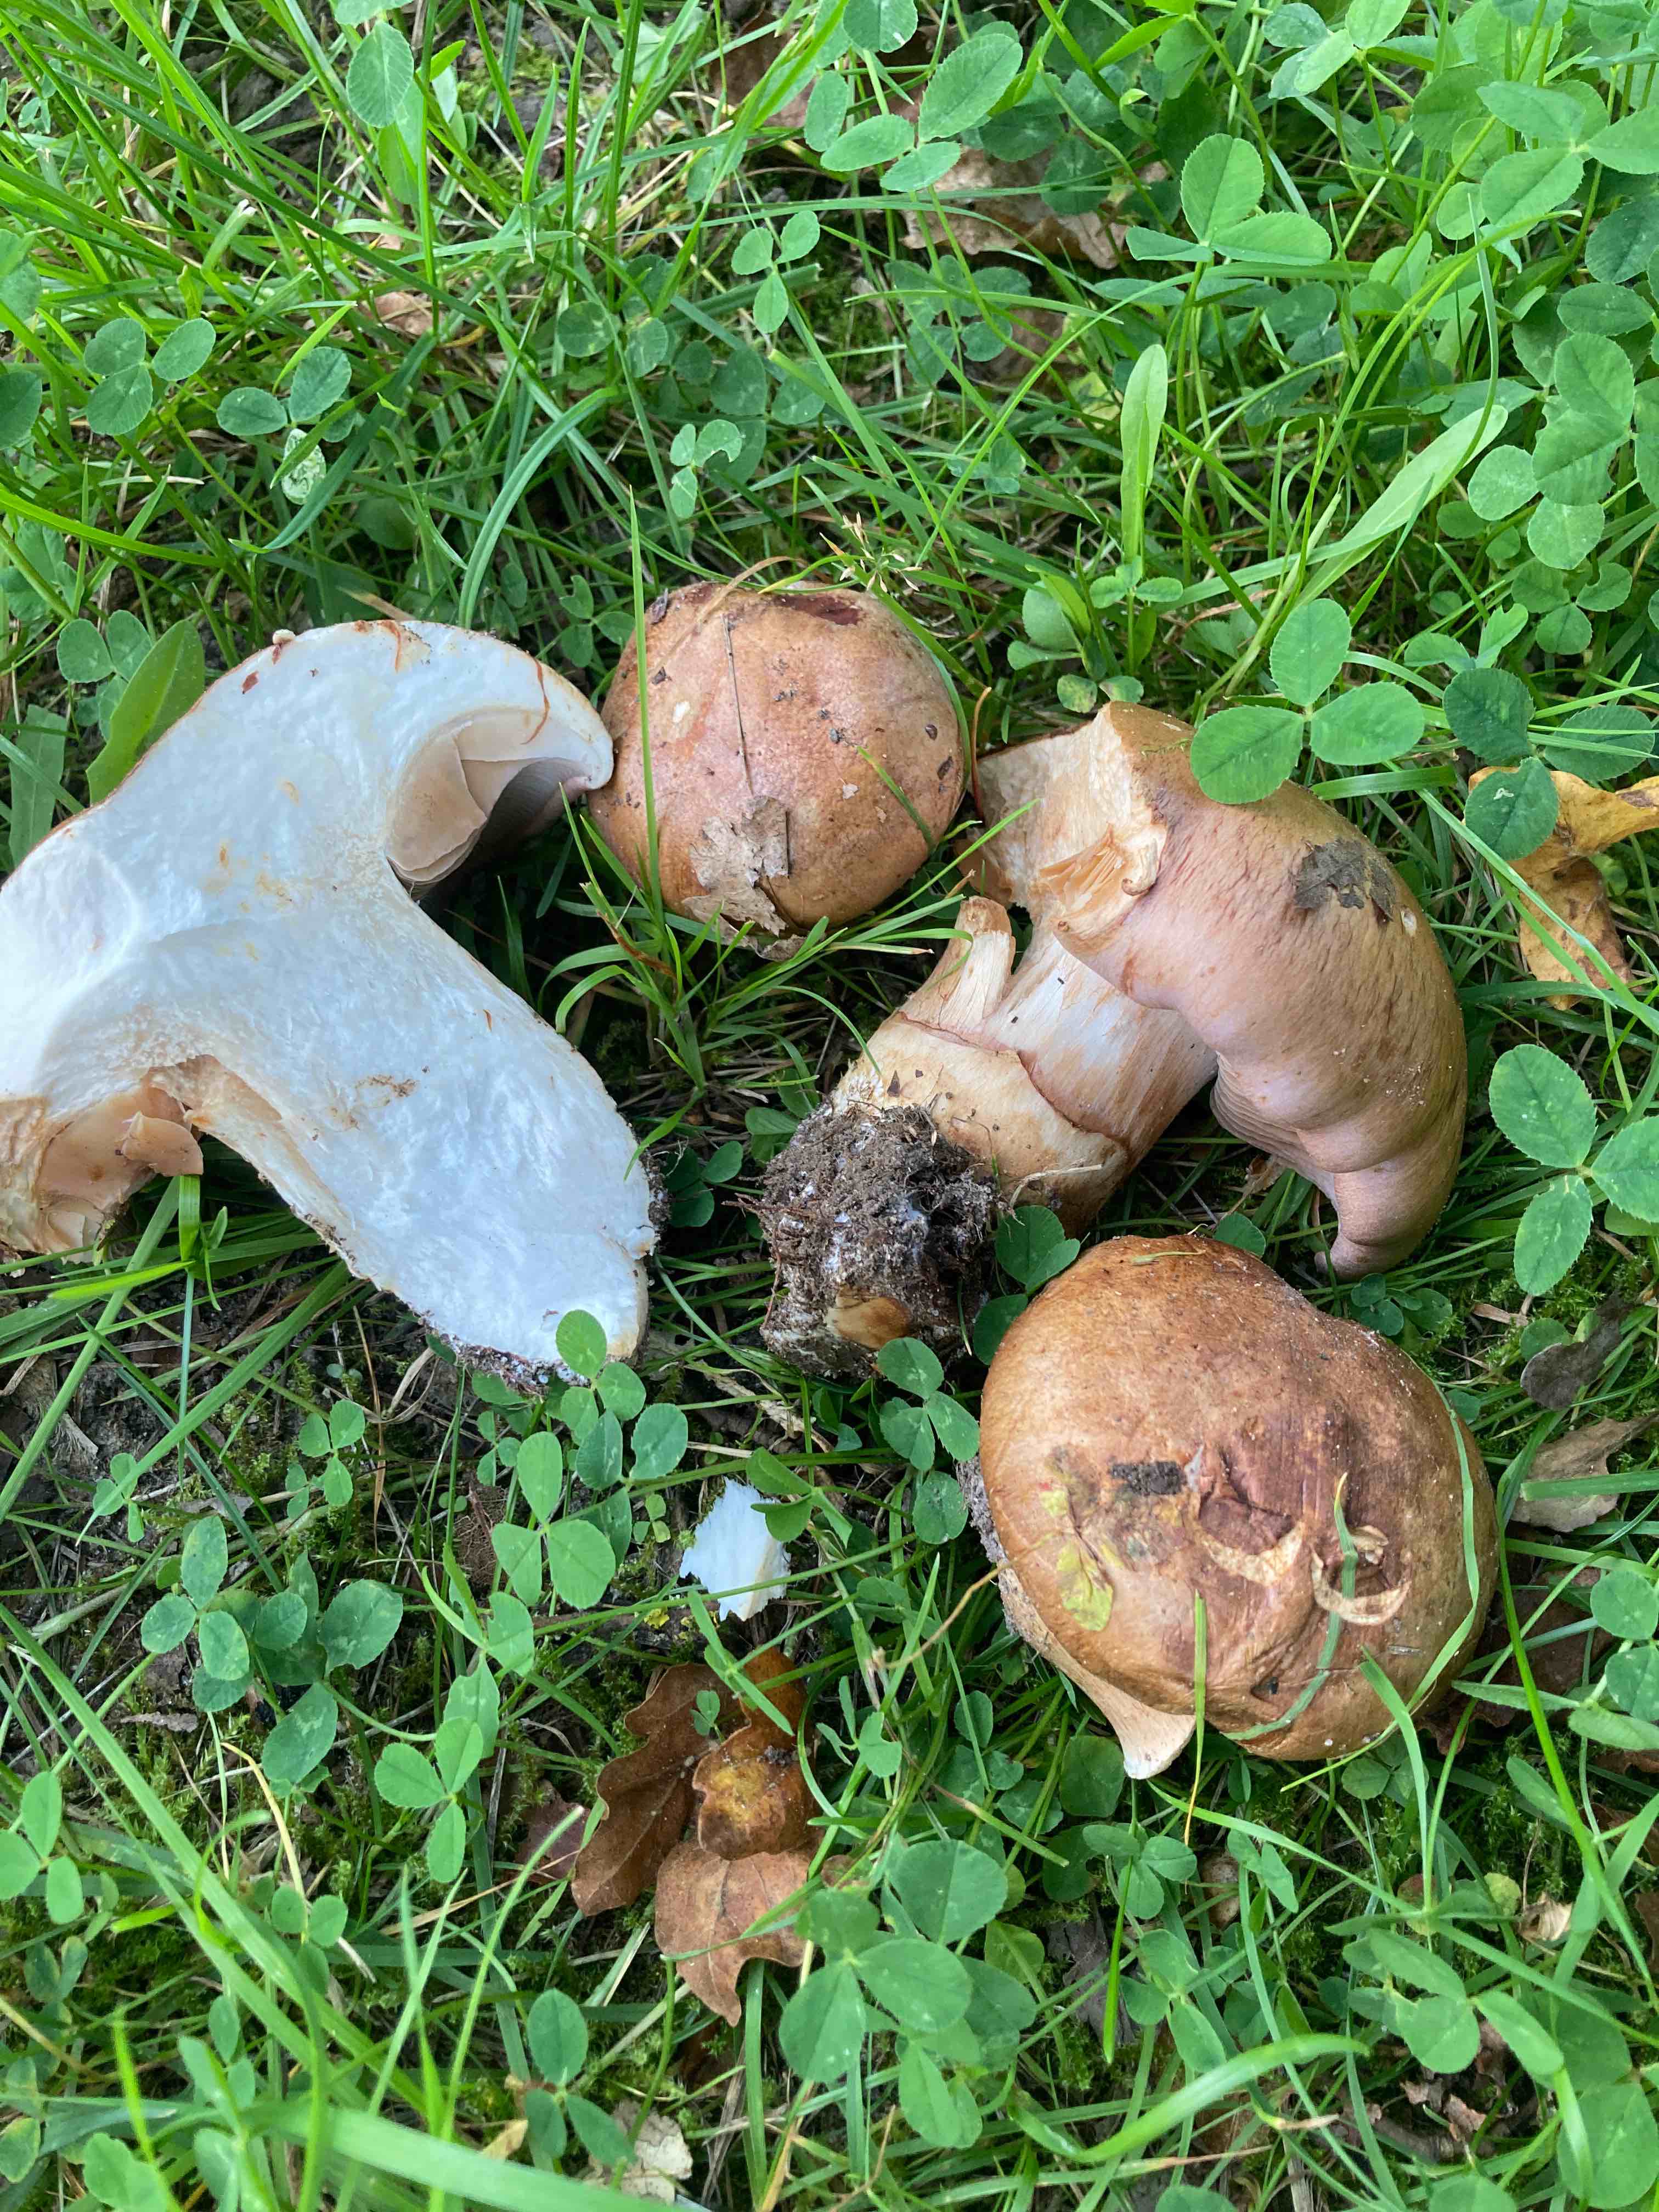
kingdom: Fungi
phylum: Basidiomycota
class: Agaricomycetes
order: Agaricales
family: Cortinariaceae
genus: Phlegmacium
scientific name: Phlegmacium balteatocumatile
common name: violettrådet slørhat
